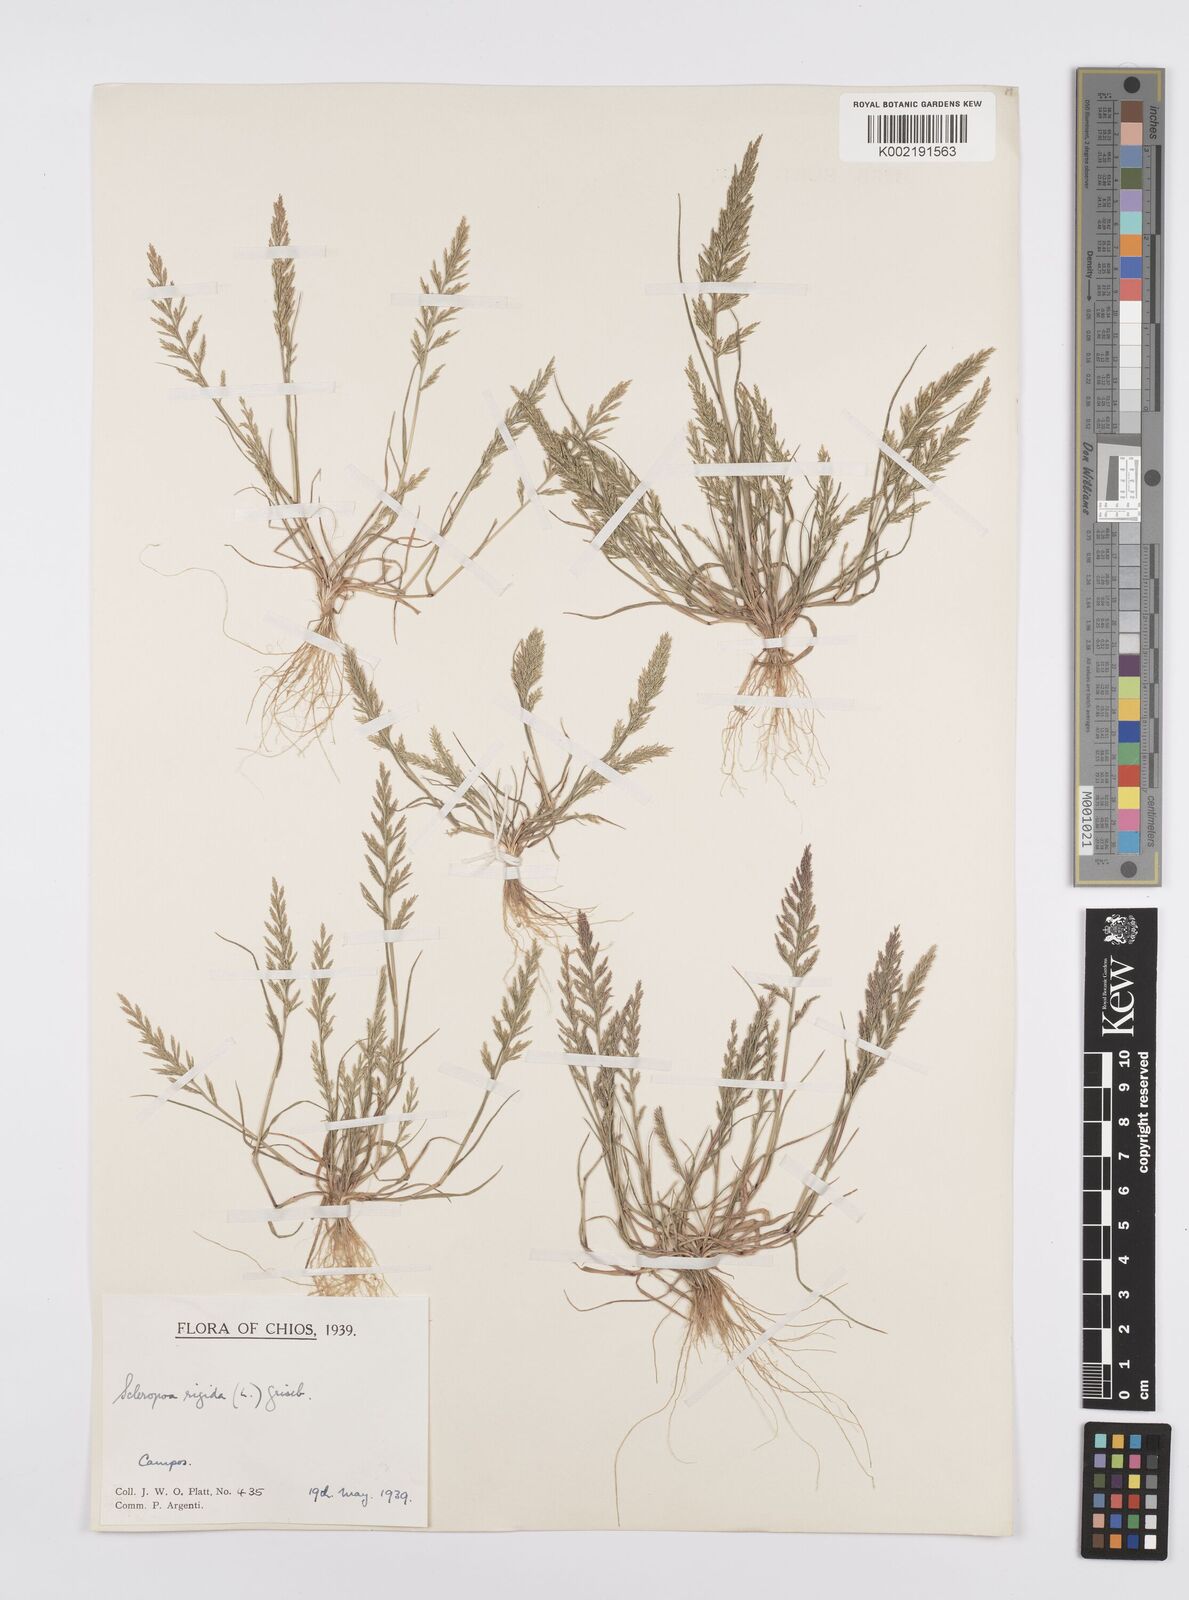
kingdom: Plantae
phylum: Tracheophyta
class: Liliopsida
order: Poales
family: Poaceae
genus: Catapodium
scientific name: Catapodium rigidum
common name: Fern-grass
